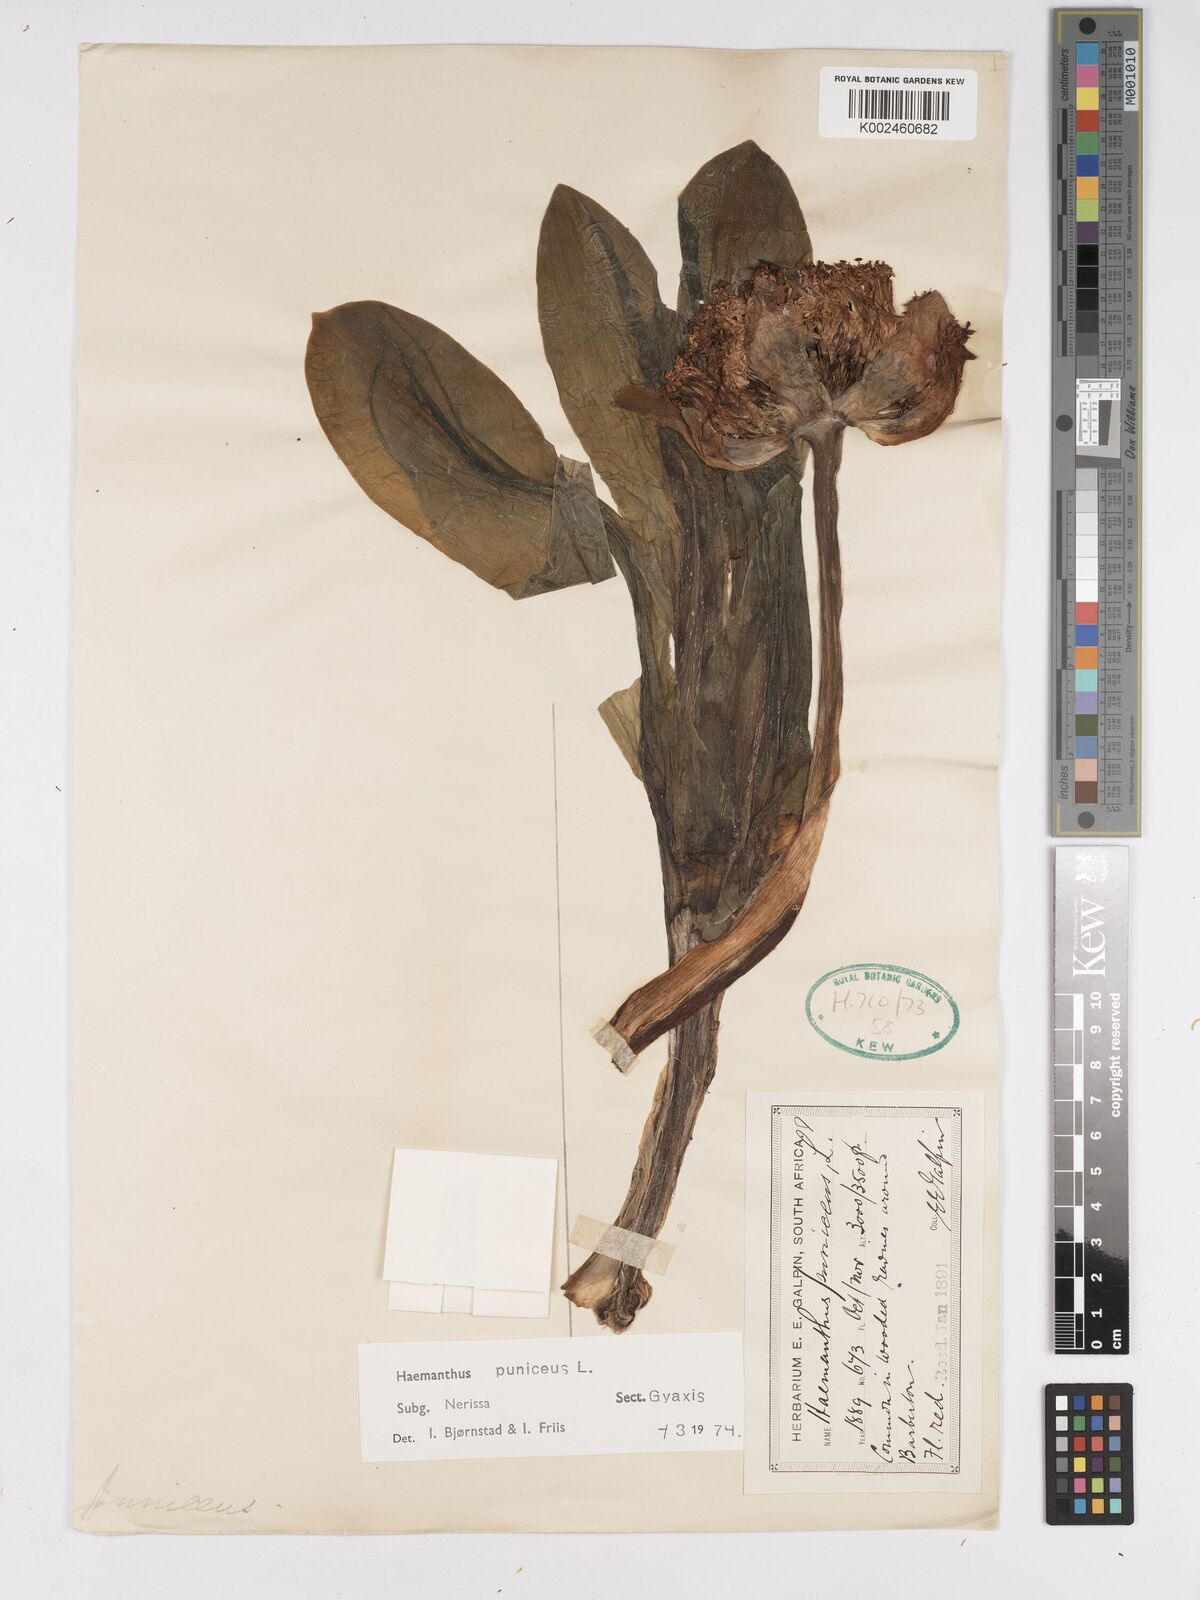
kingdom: Plantae
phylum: Tracheophyta
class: Liliopsida
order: Asparagales
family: Amaryllidaceae
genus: Scadoxus
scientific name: Scadoxus puniceus
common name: Royal-paintbrush
